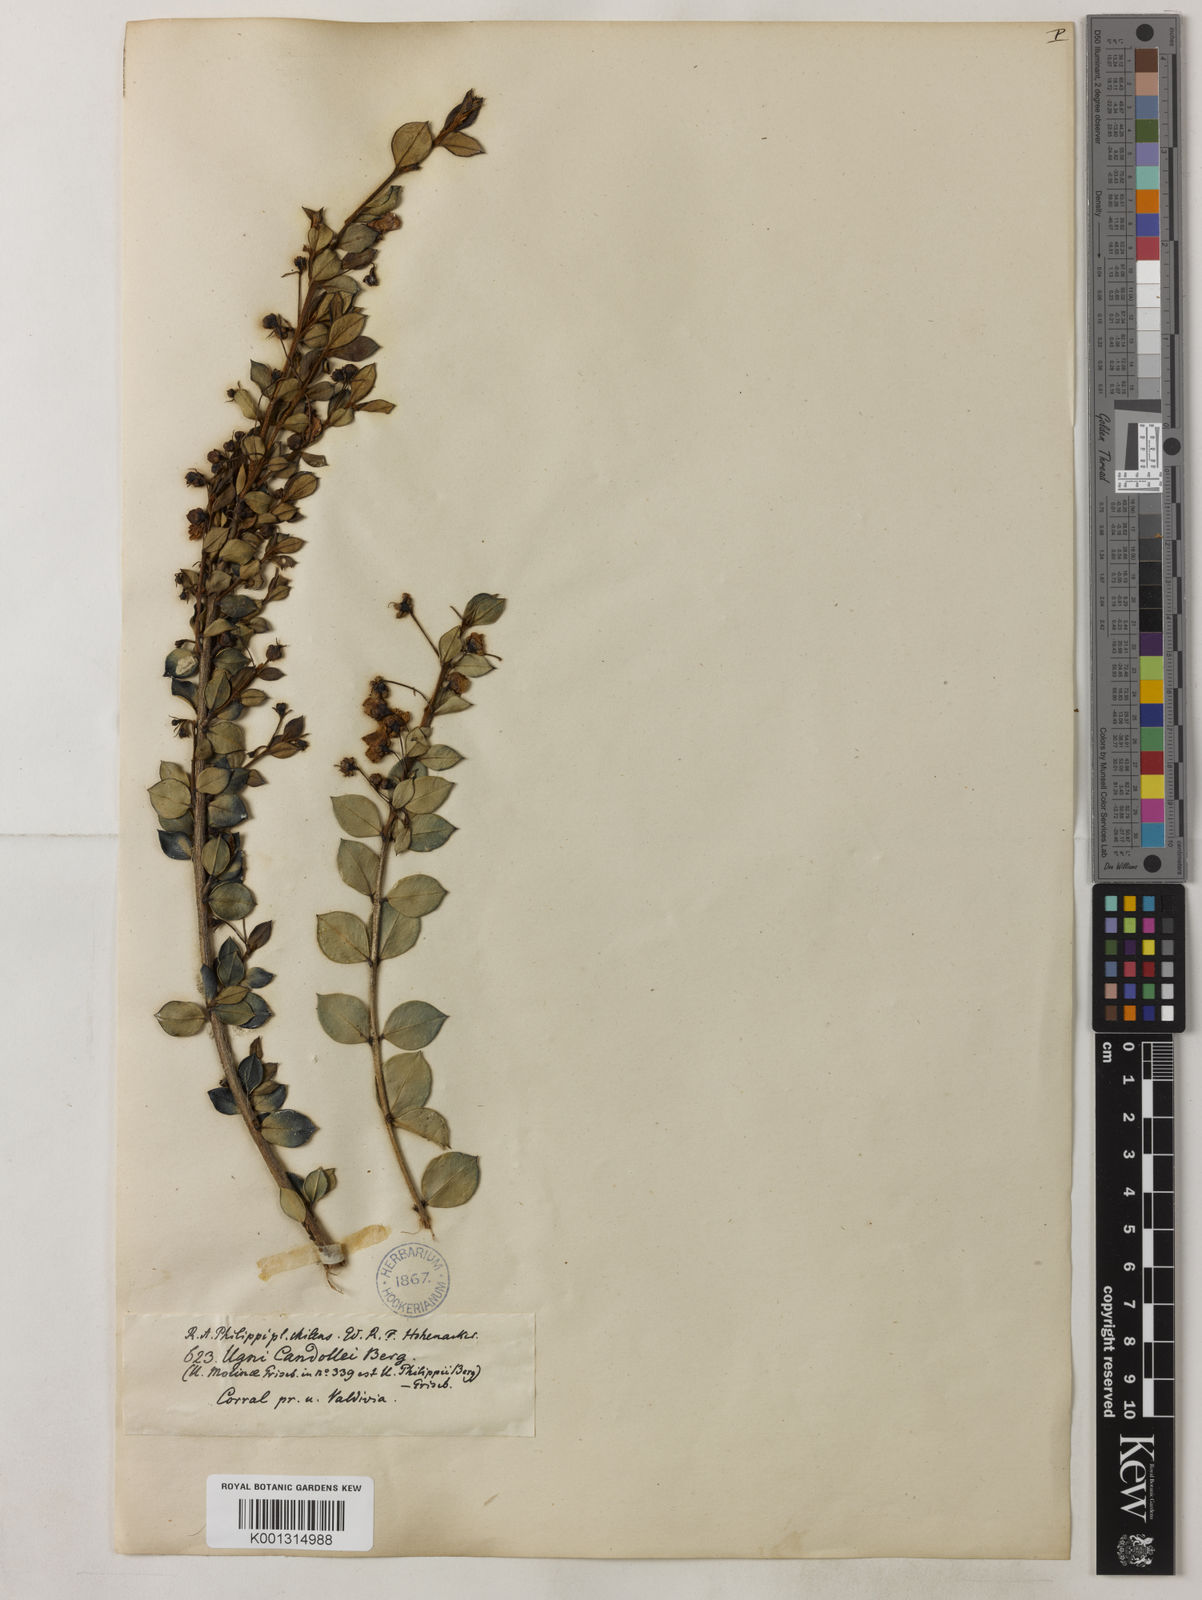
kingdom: Plantae
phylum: Tracheophyta
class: Magnoliopsida
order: Myrtales
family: Myrtaceae
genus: Ugni
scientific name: Ugni candollei
